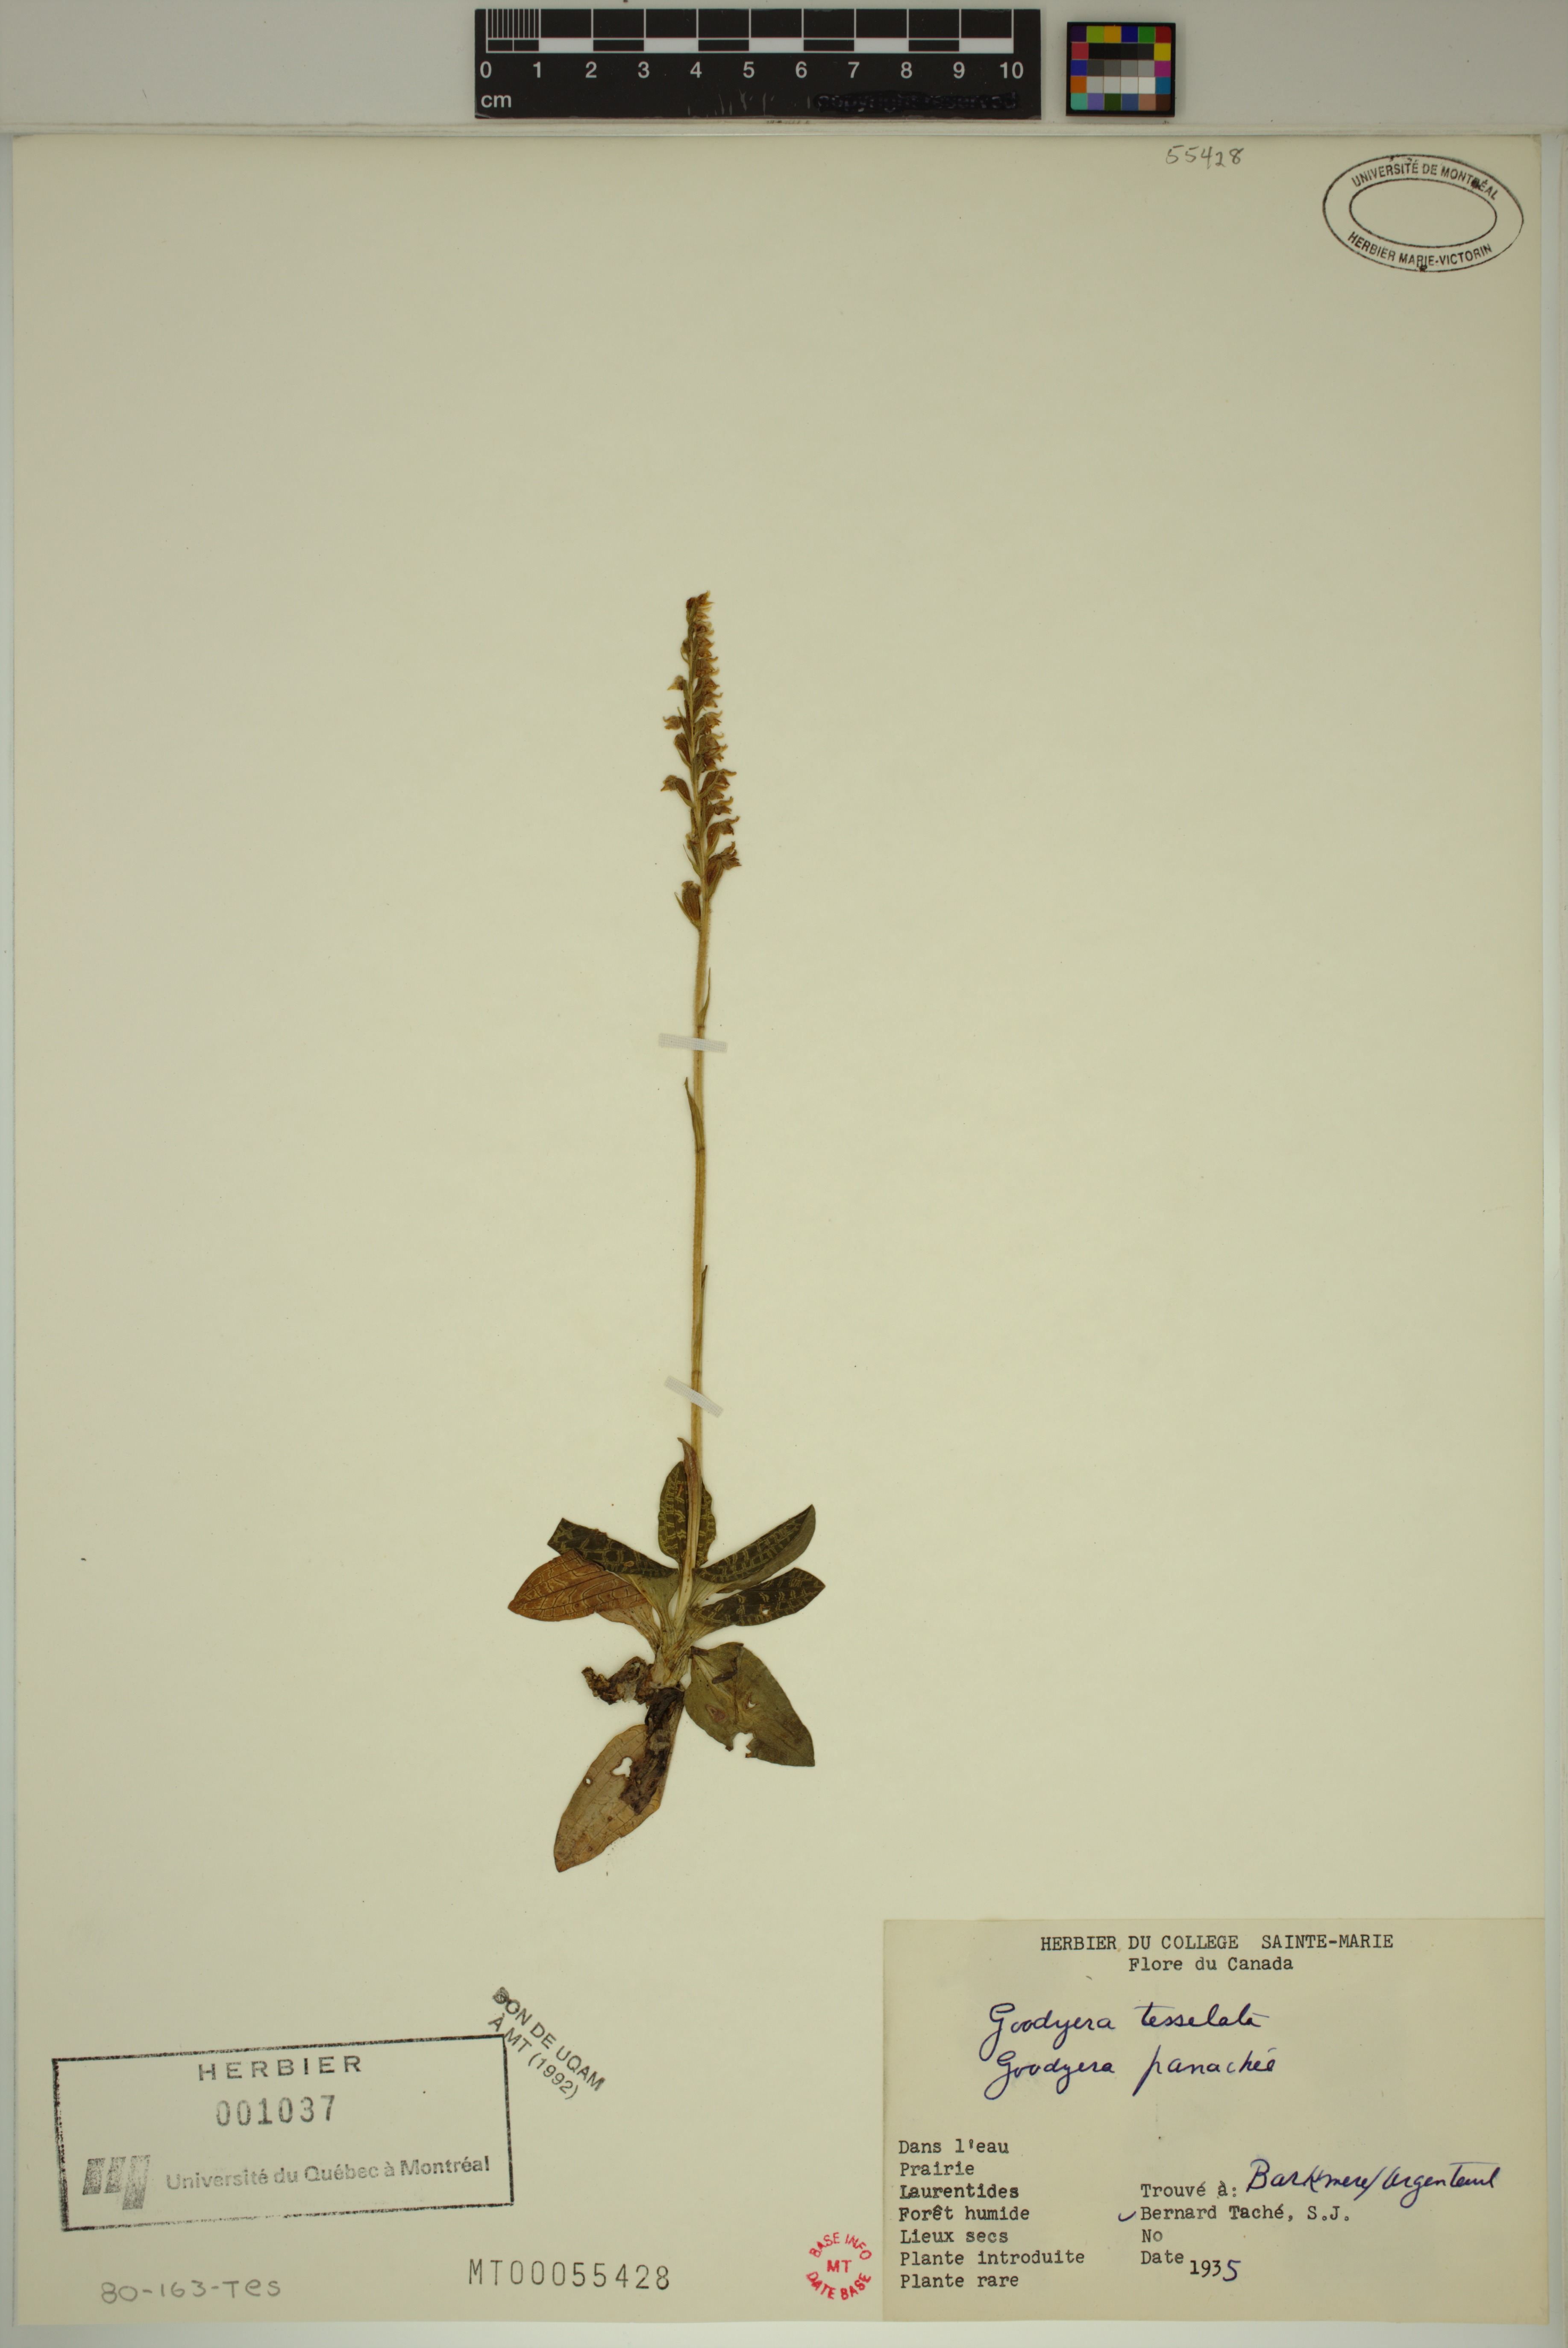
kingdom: Plantae
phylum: Tracheophyta
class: Liliopsida
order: Asparagales
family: Orchidaceae
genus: Goodyera
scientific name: Goodyera tesselata
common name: Checkered rattlesnake-plantain
